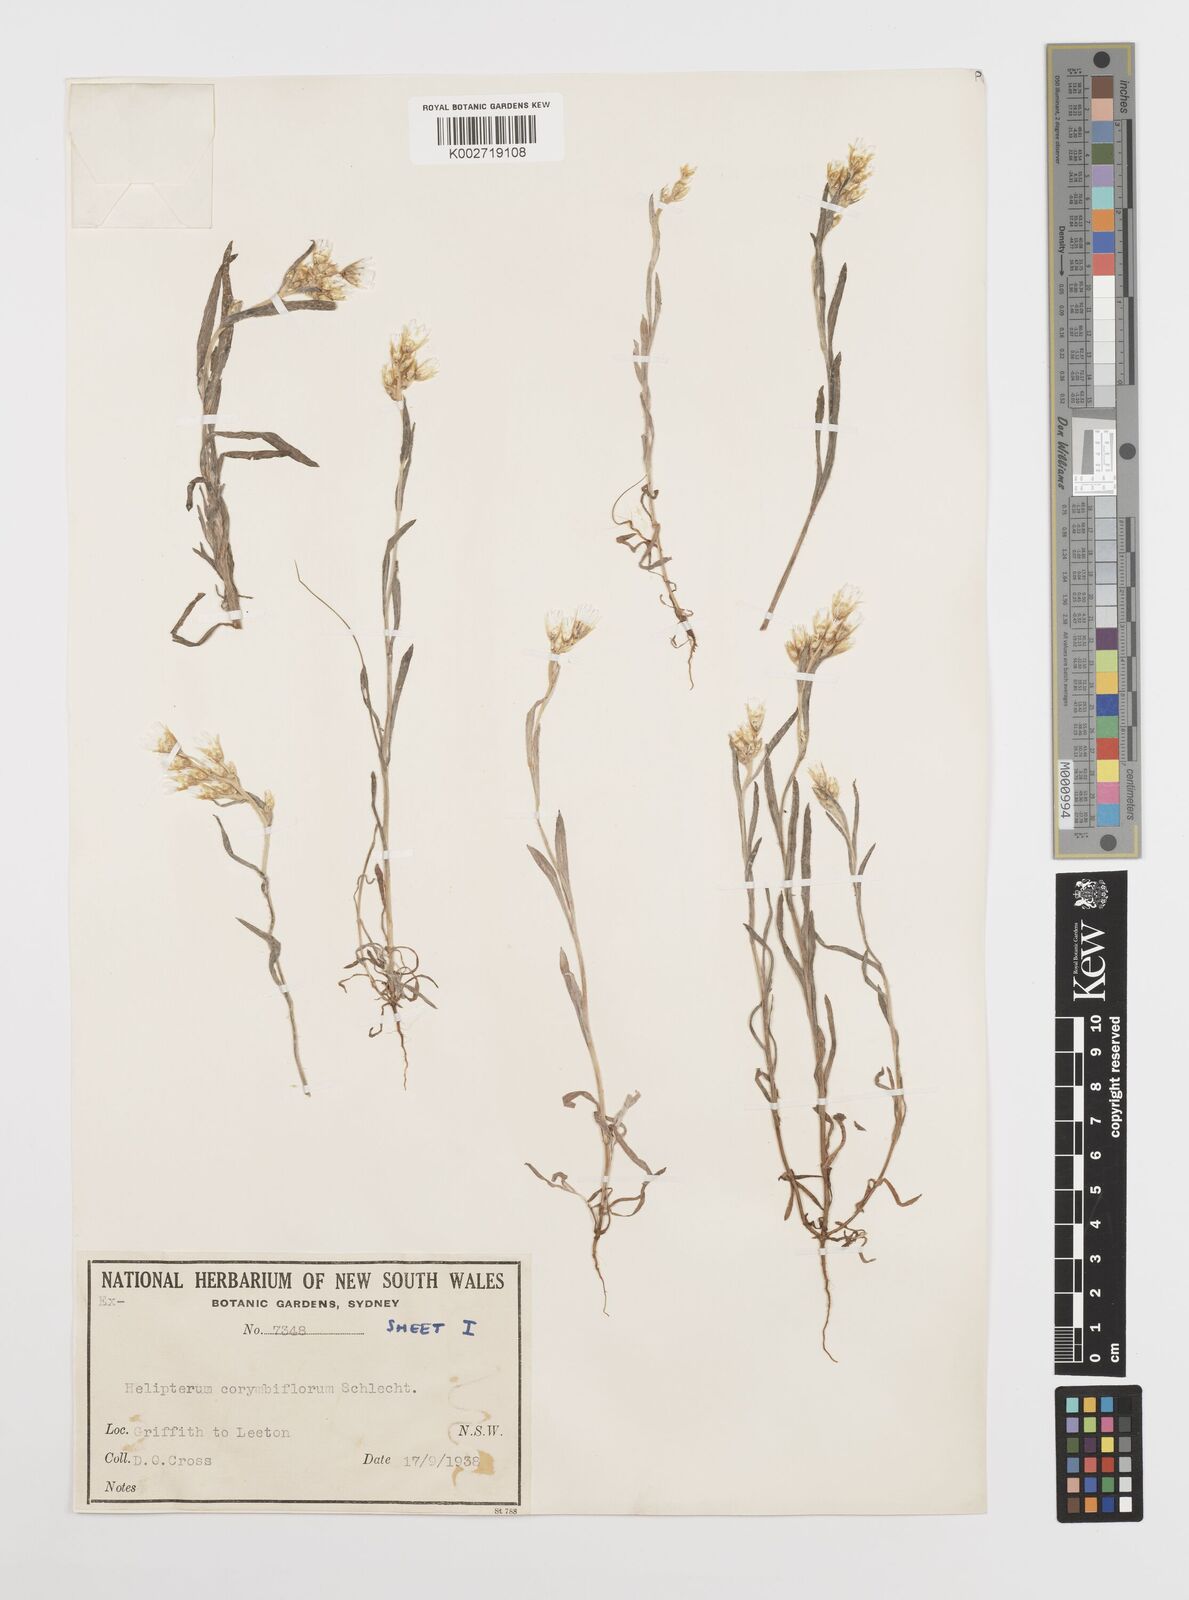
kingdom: Plantae
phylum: Tracheophyta
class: Magnoliopsida
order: Asterales
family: Asteraceae
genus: Rhodanthe
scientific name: Rhodanthe corymbiflora
